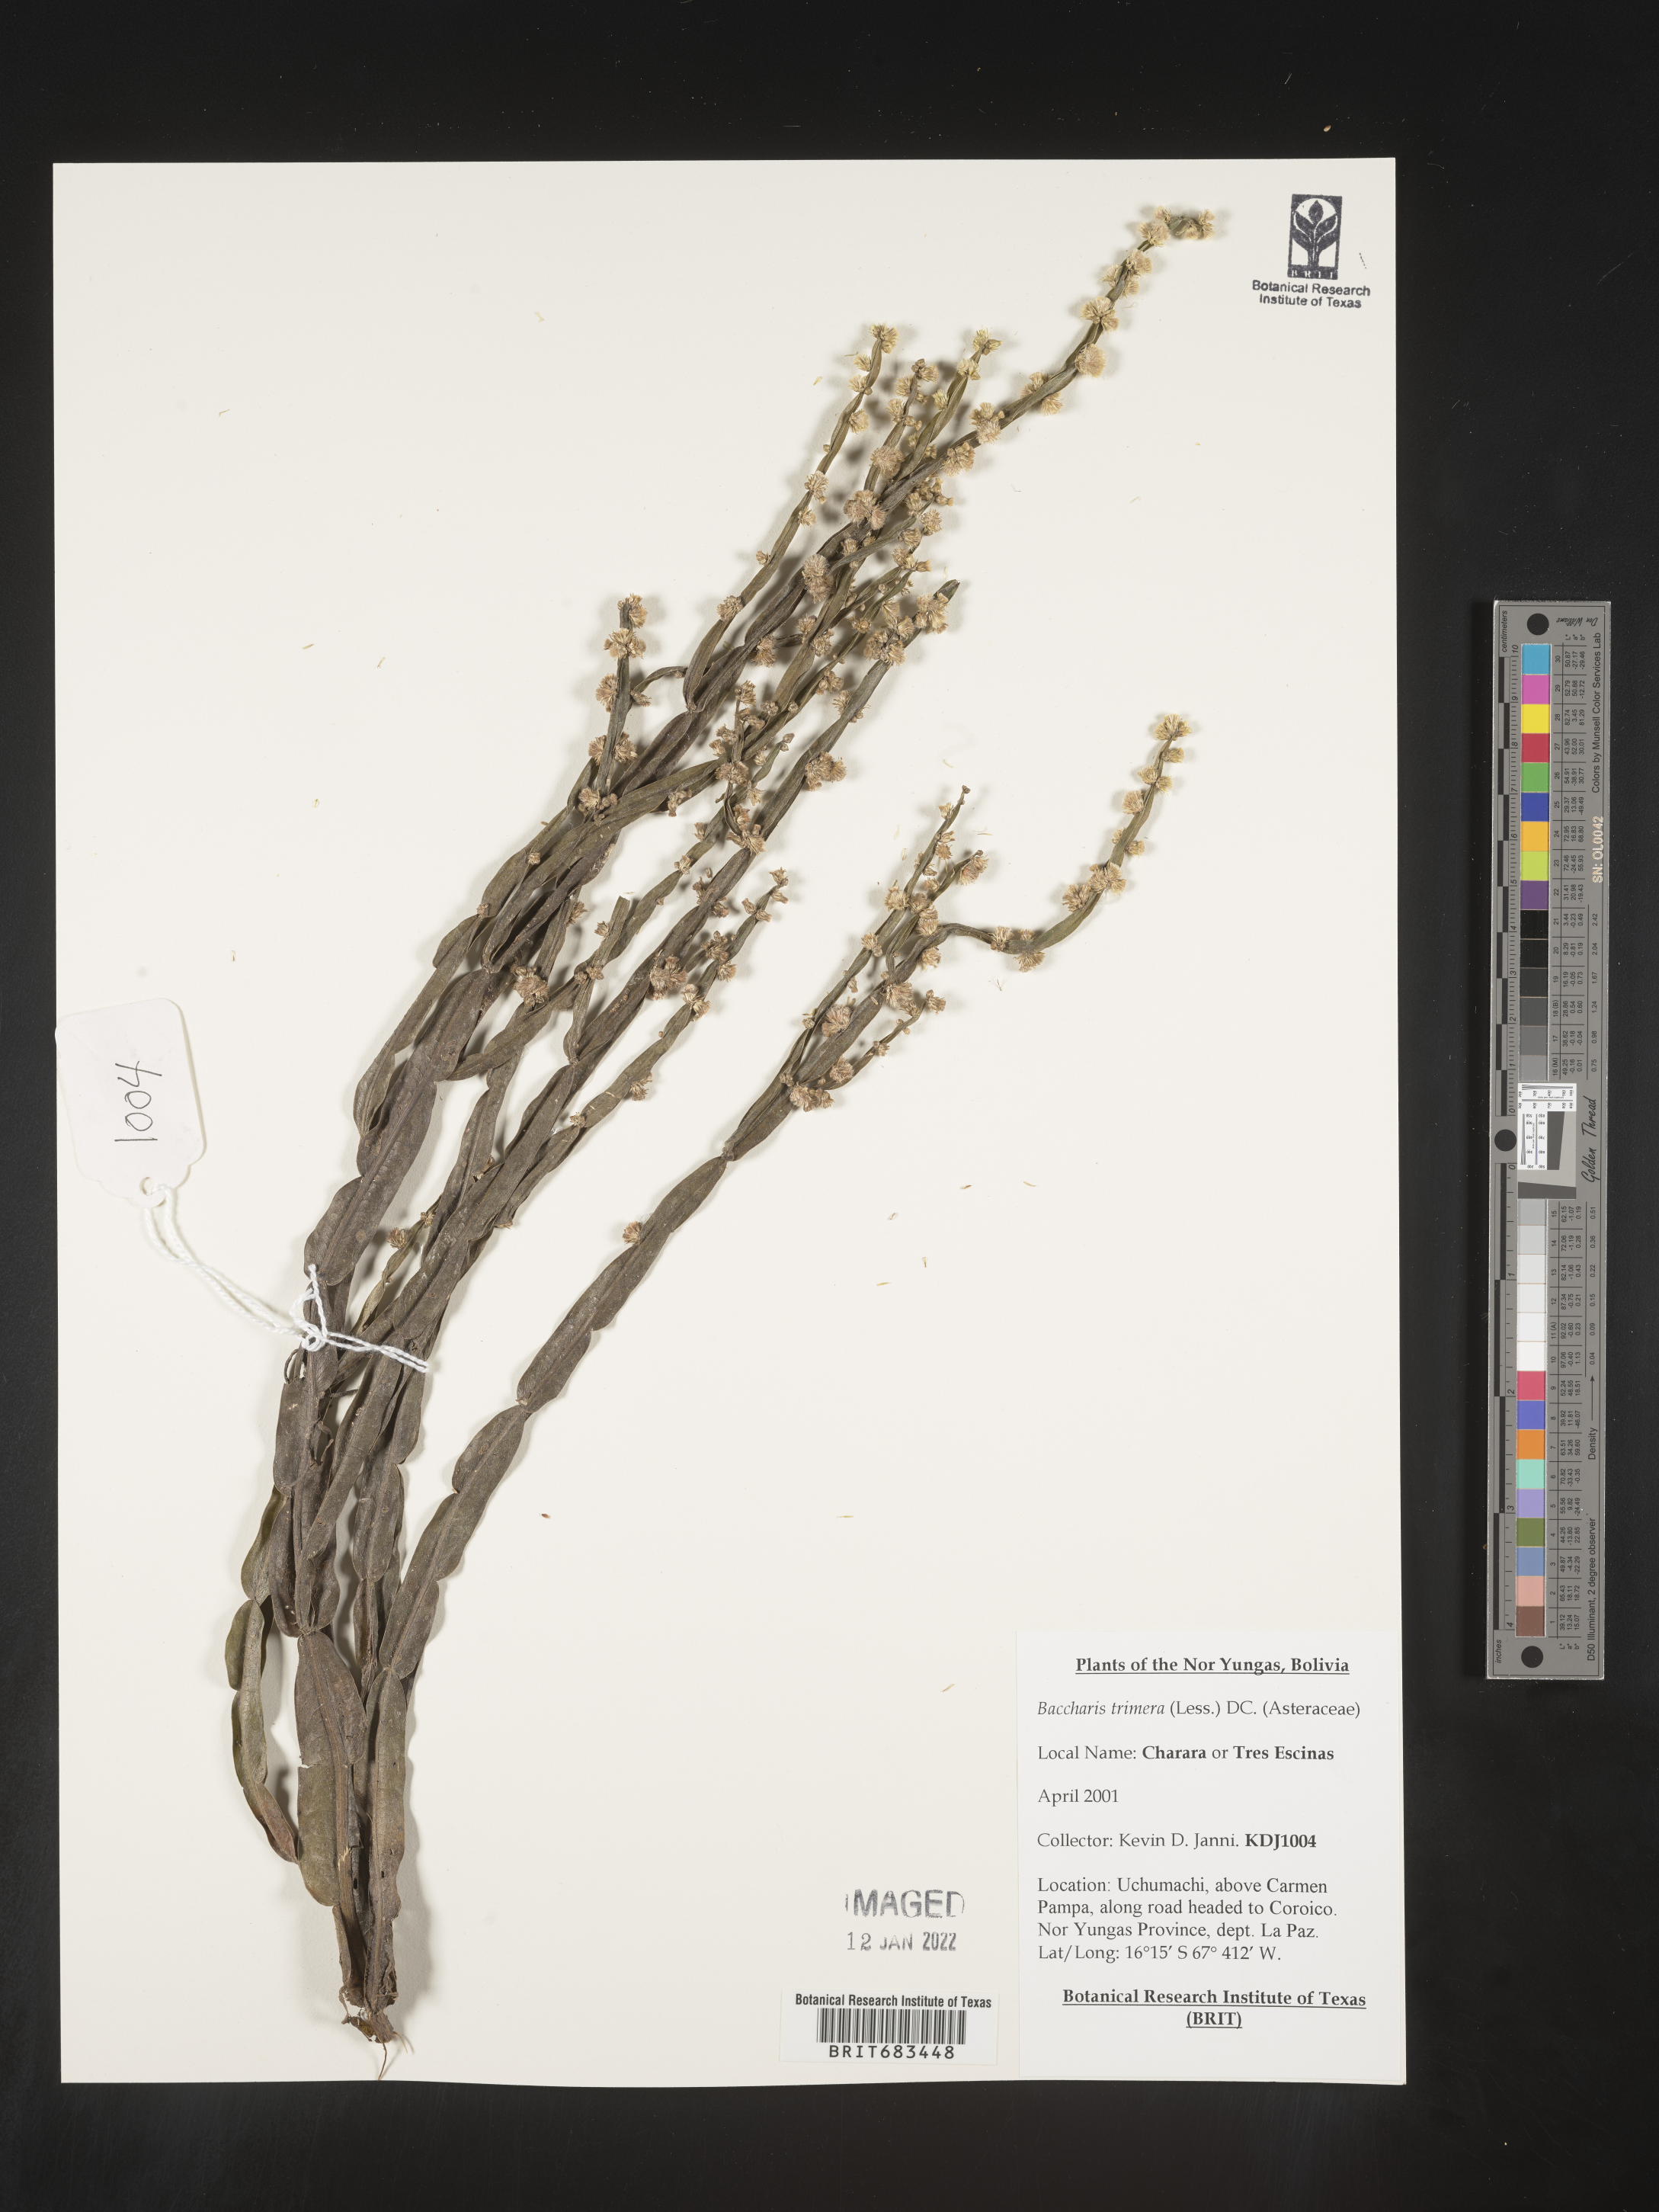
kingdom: Plantae
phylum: Tracheophyta
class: Magnoliopsida
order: Asterales
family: Asteraceae
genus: Baccharis
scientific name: Baccharis
